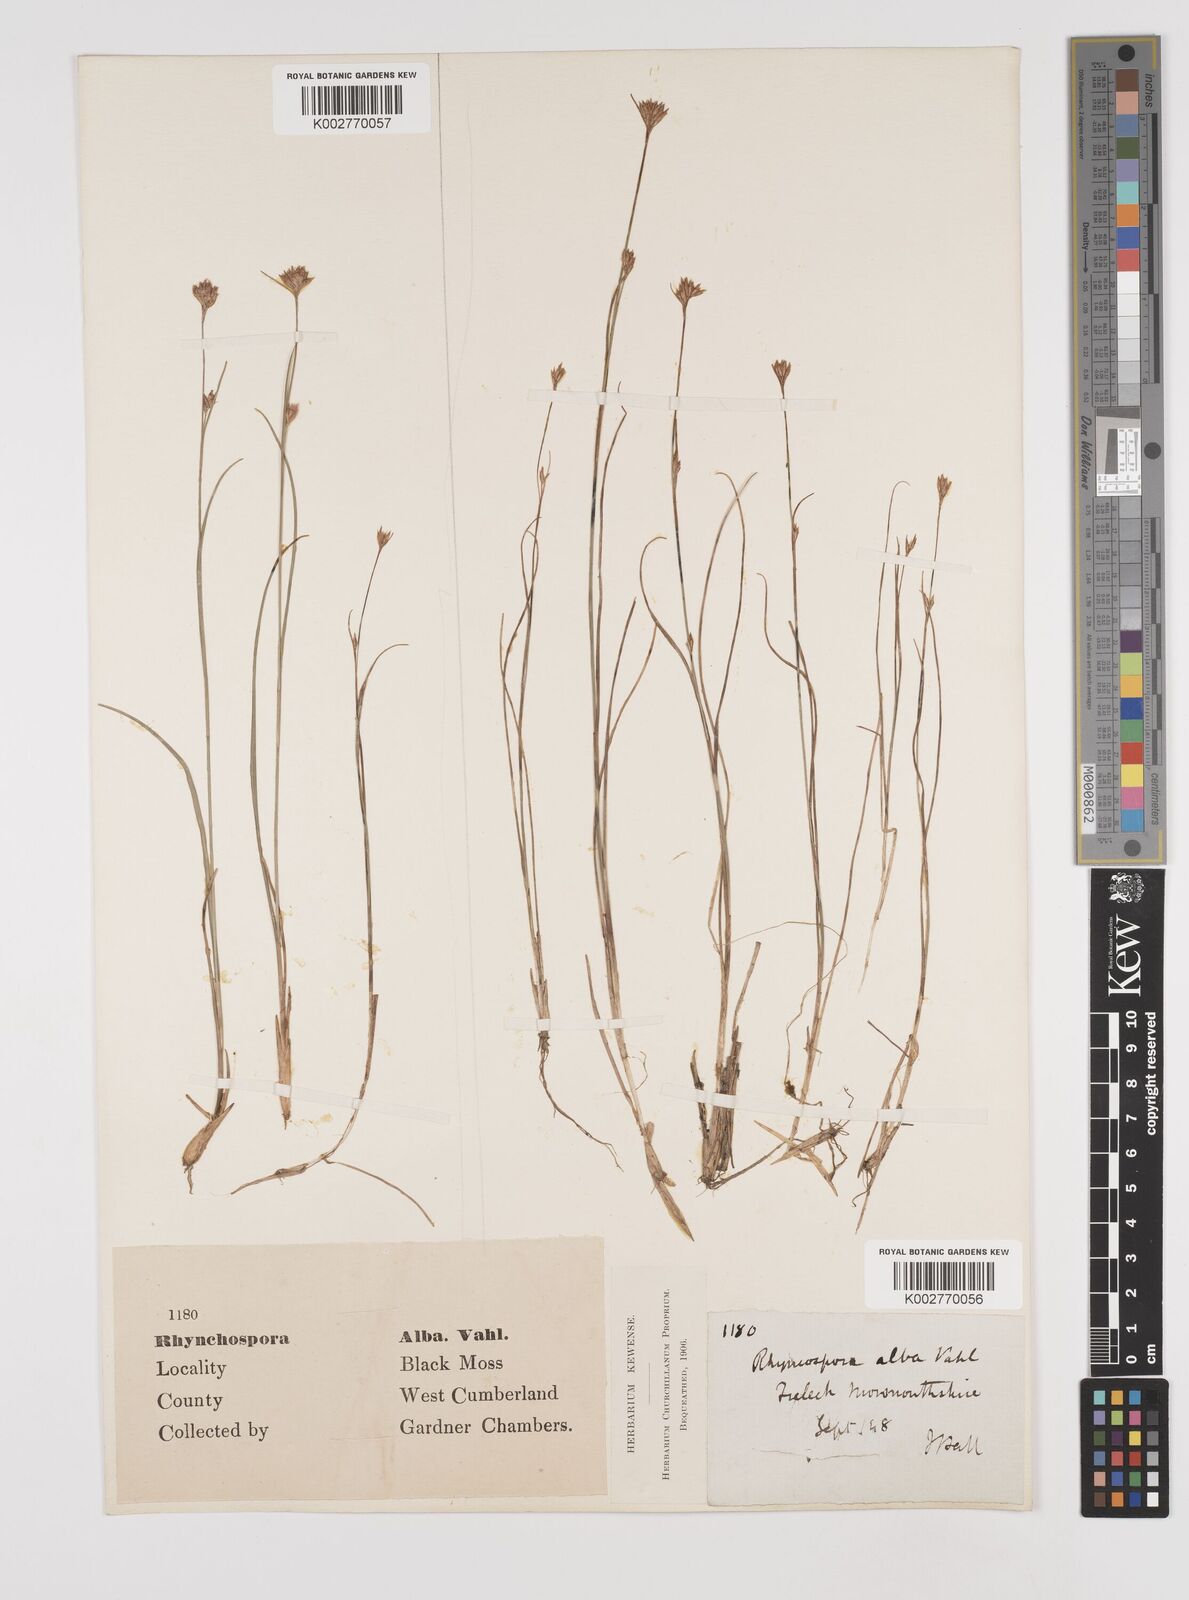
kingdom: Plantae
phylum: Tracheophyta
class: Liliopsida
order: Poales
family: Cyperaceae
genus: Rhynchospora
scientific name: Rhynchospora alba
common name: White beak-sedge
